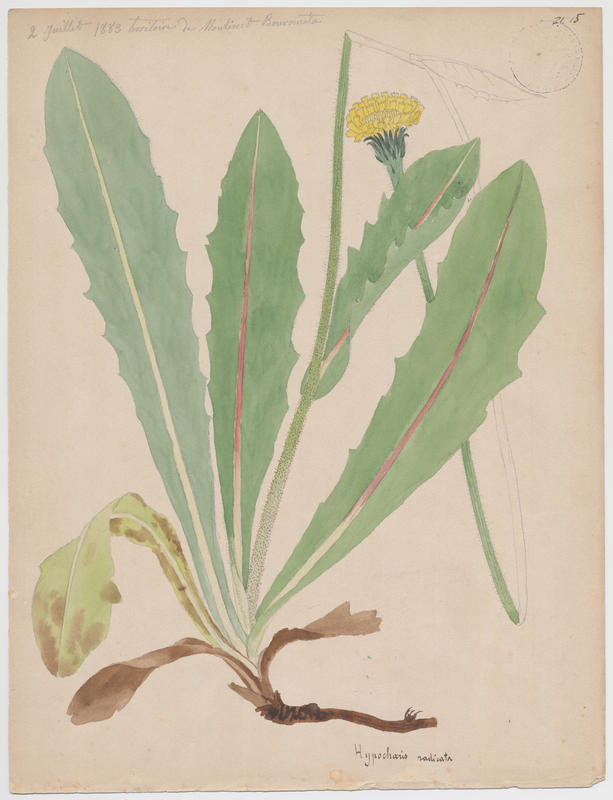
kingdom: Plantae
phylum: Tracheophyta
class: Magnoliopsida
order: Asterales
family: Asteraceae
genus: Hypochoeris
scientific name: Hypochoeris radicata
